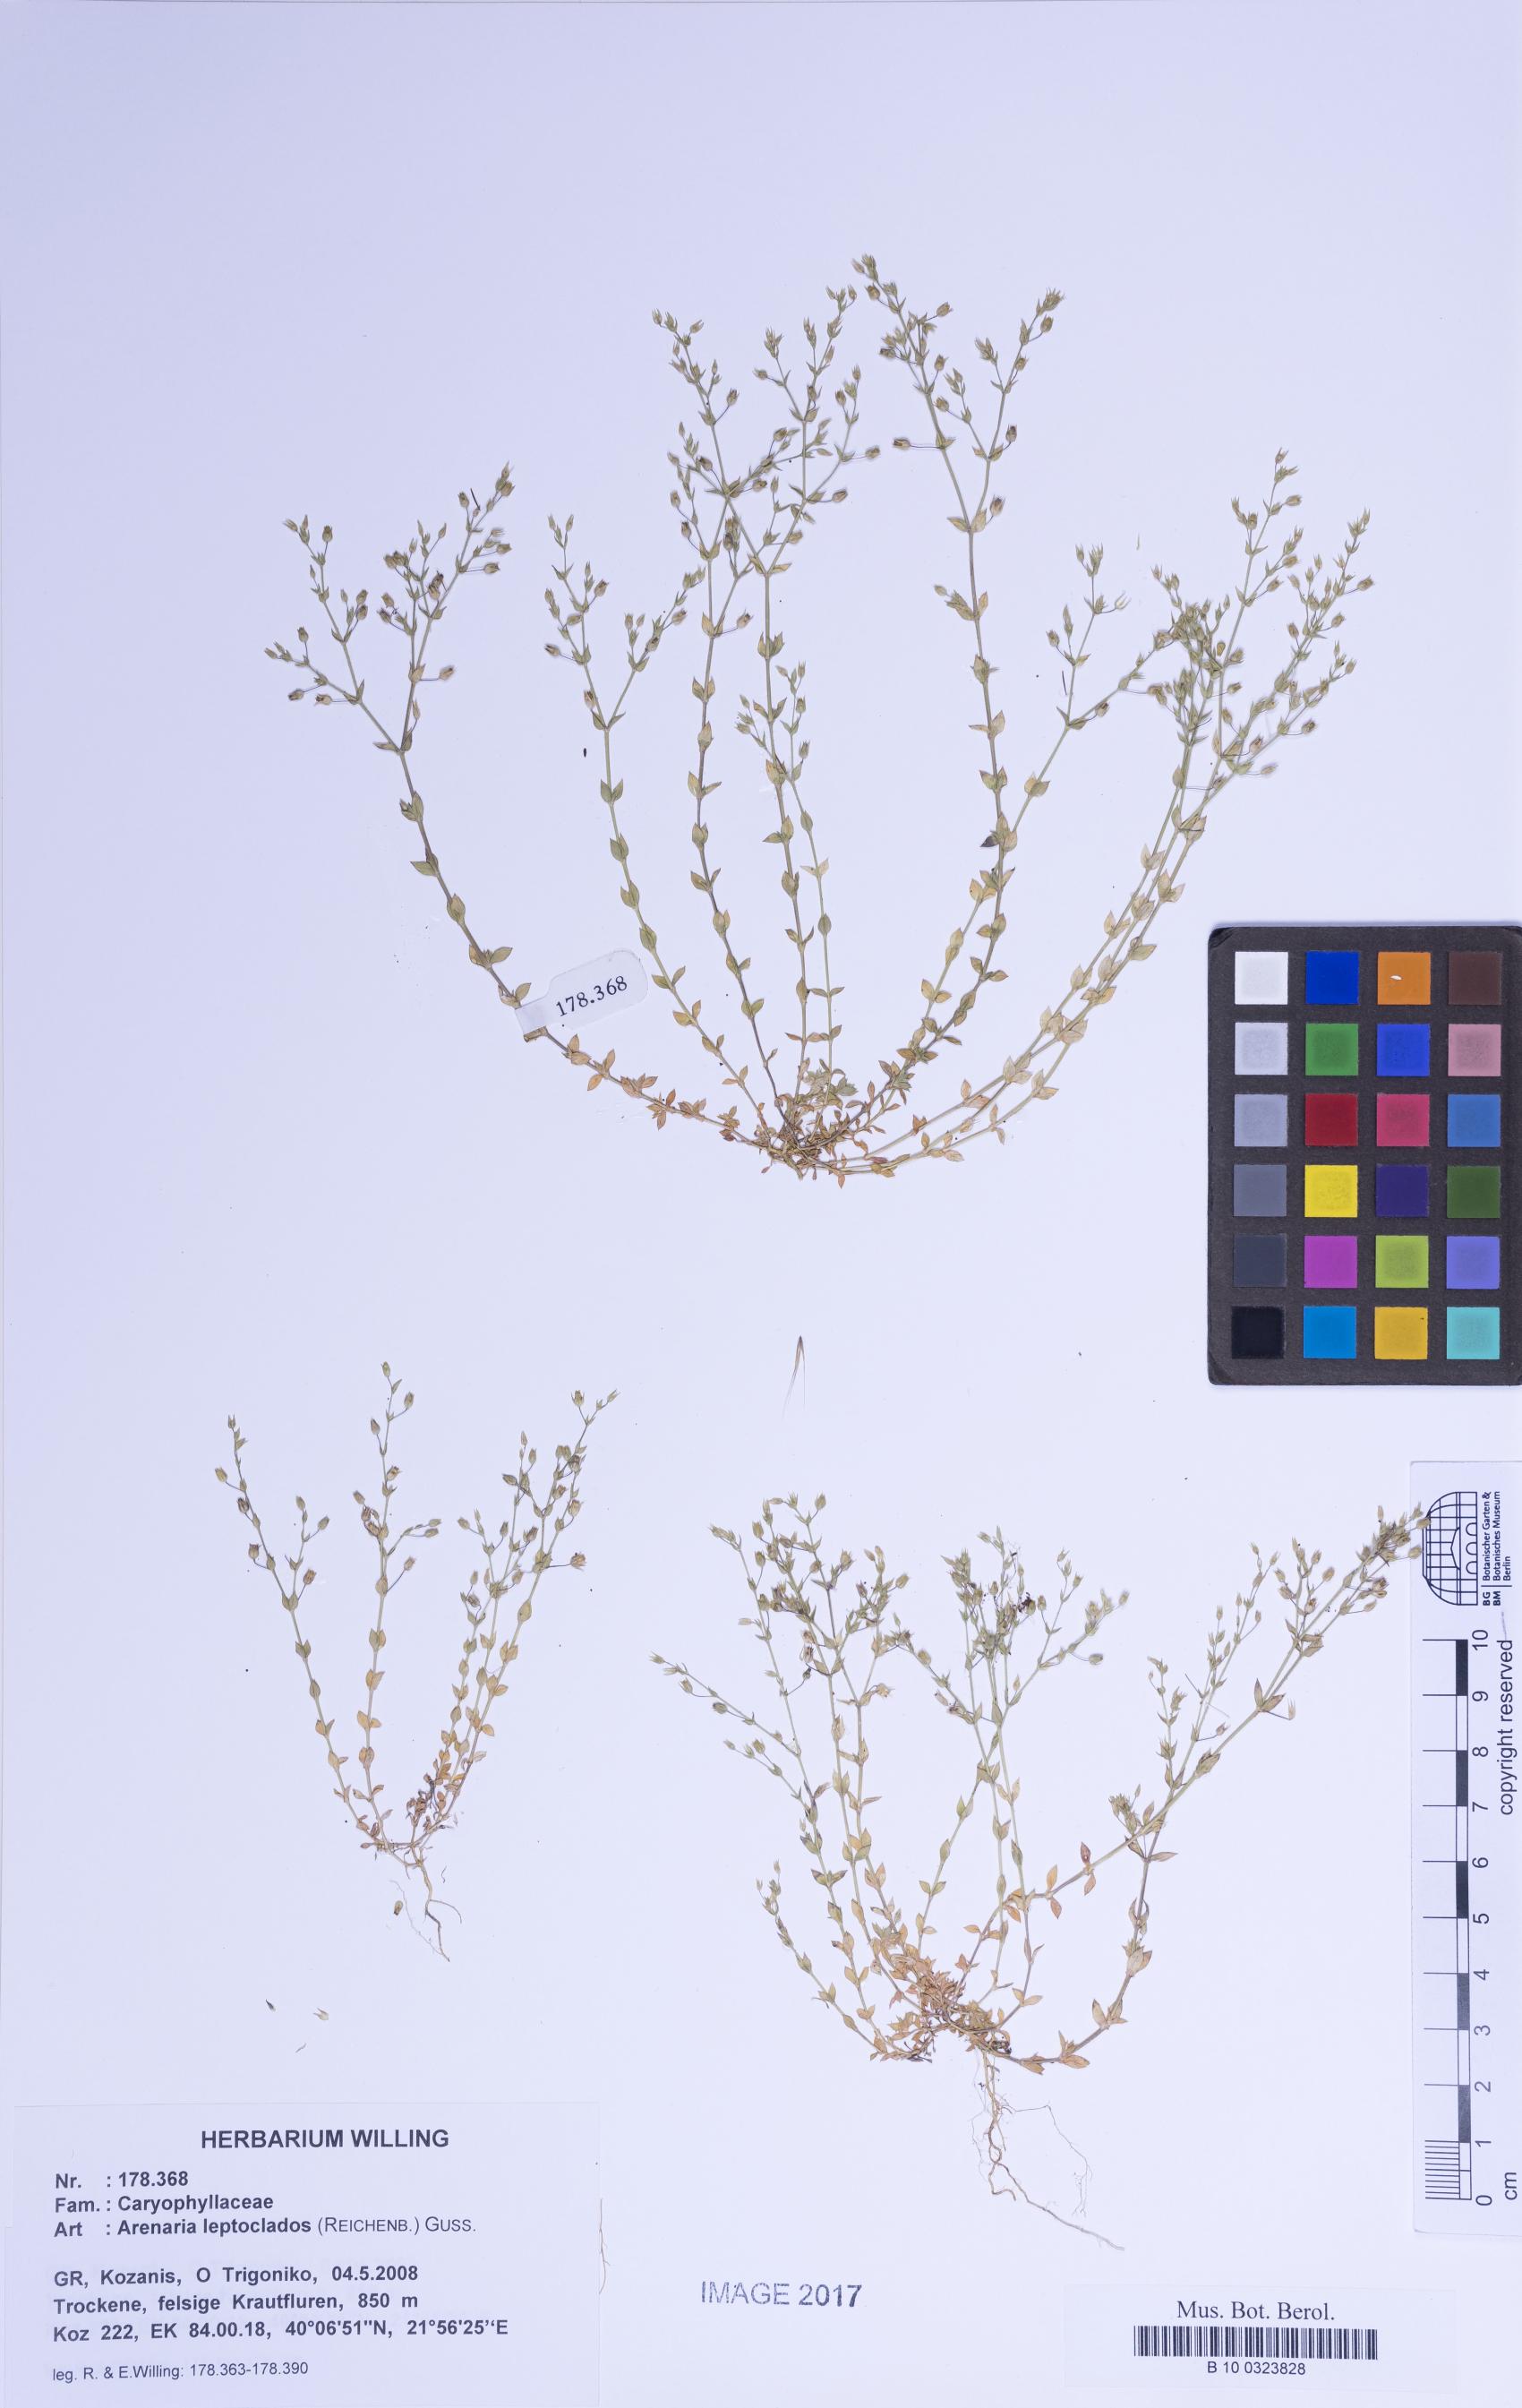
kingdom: Plantae
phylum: Tracheophyta
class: Magnoliopsida
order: Caryophyllales
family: Caryophyllaceae
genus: Arenaria
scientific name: Arenaria leptoclados
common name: Thyme-leaved sandwort
